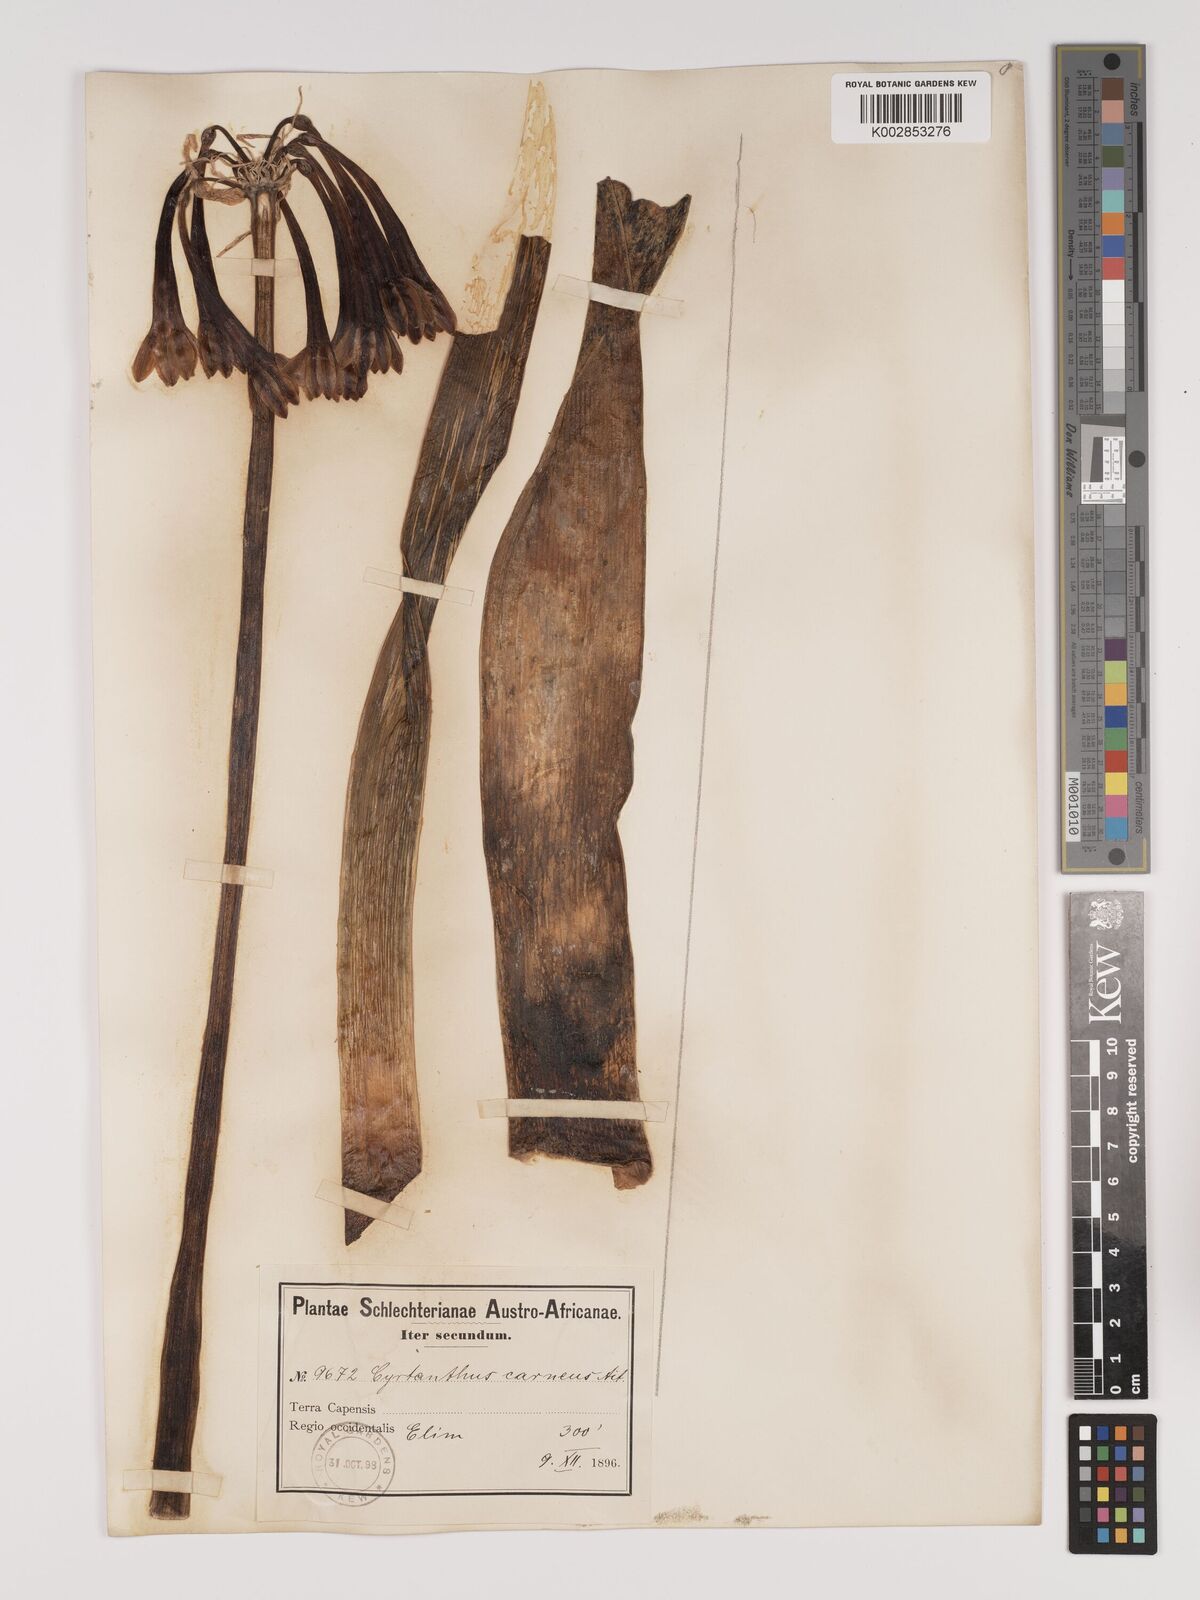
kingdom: Plantae
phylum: Tracheophyta
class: Liliopsida
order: Asparagales
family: Amaryllidaceae
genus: Cyrtanthus
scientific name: Cyrtanthus carneus
